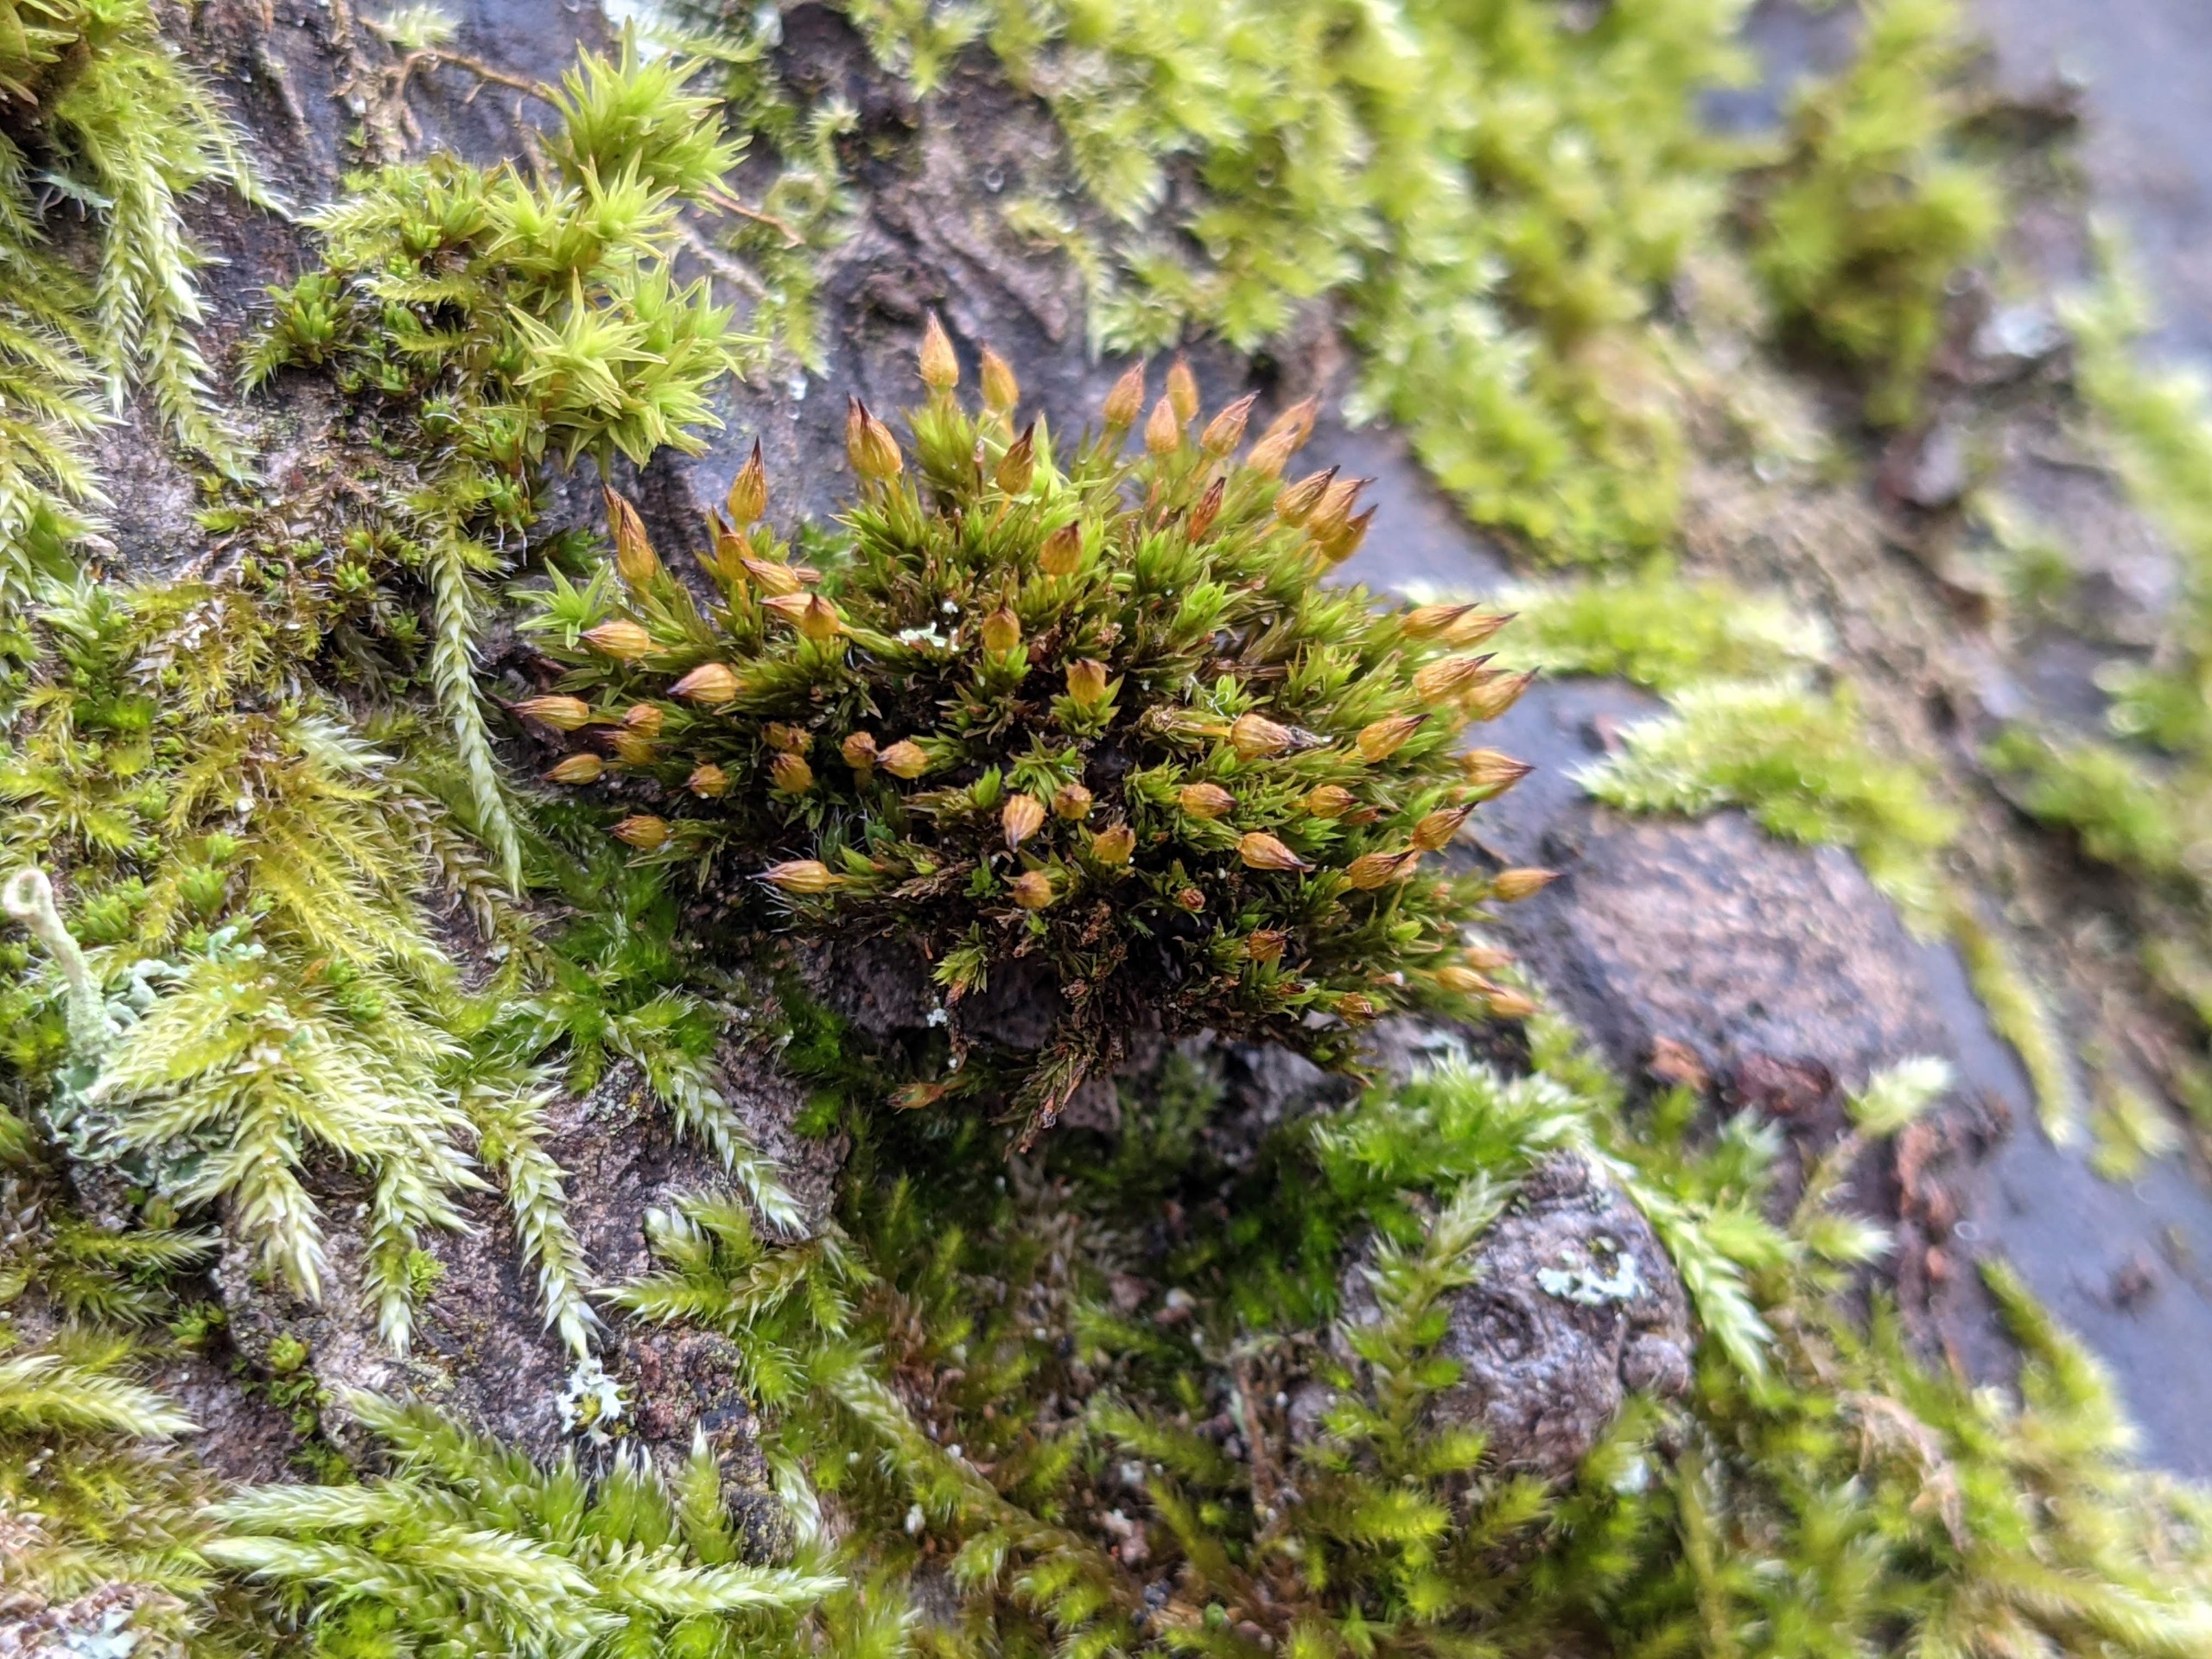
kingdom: Plantae
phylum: Bryophyta
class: Bryopsida
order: Orthotrichales
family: Orthotrichaceae
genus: Orthotrichum
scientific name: Orthotrichum anomalum
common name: Mørk furehætte
